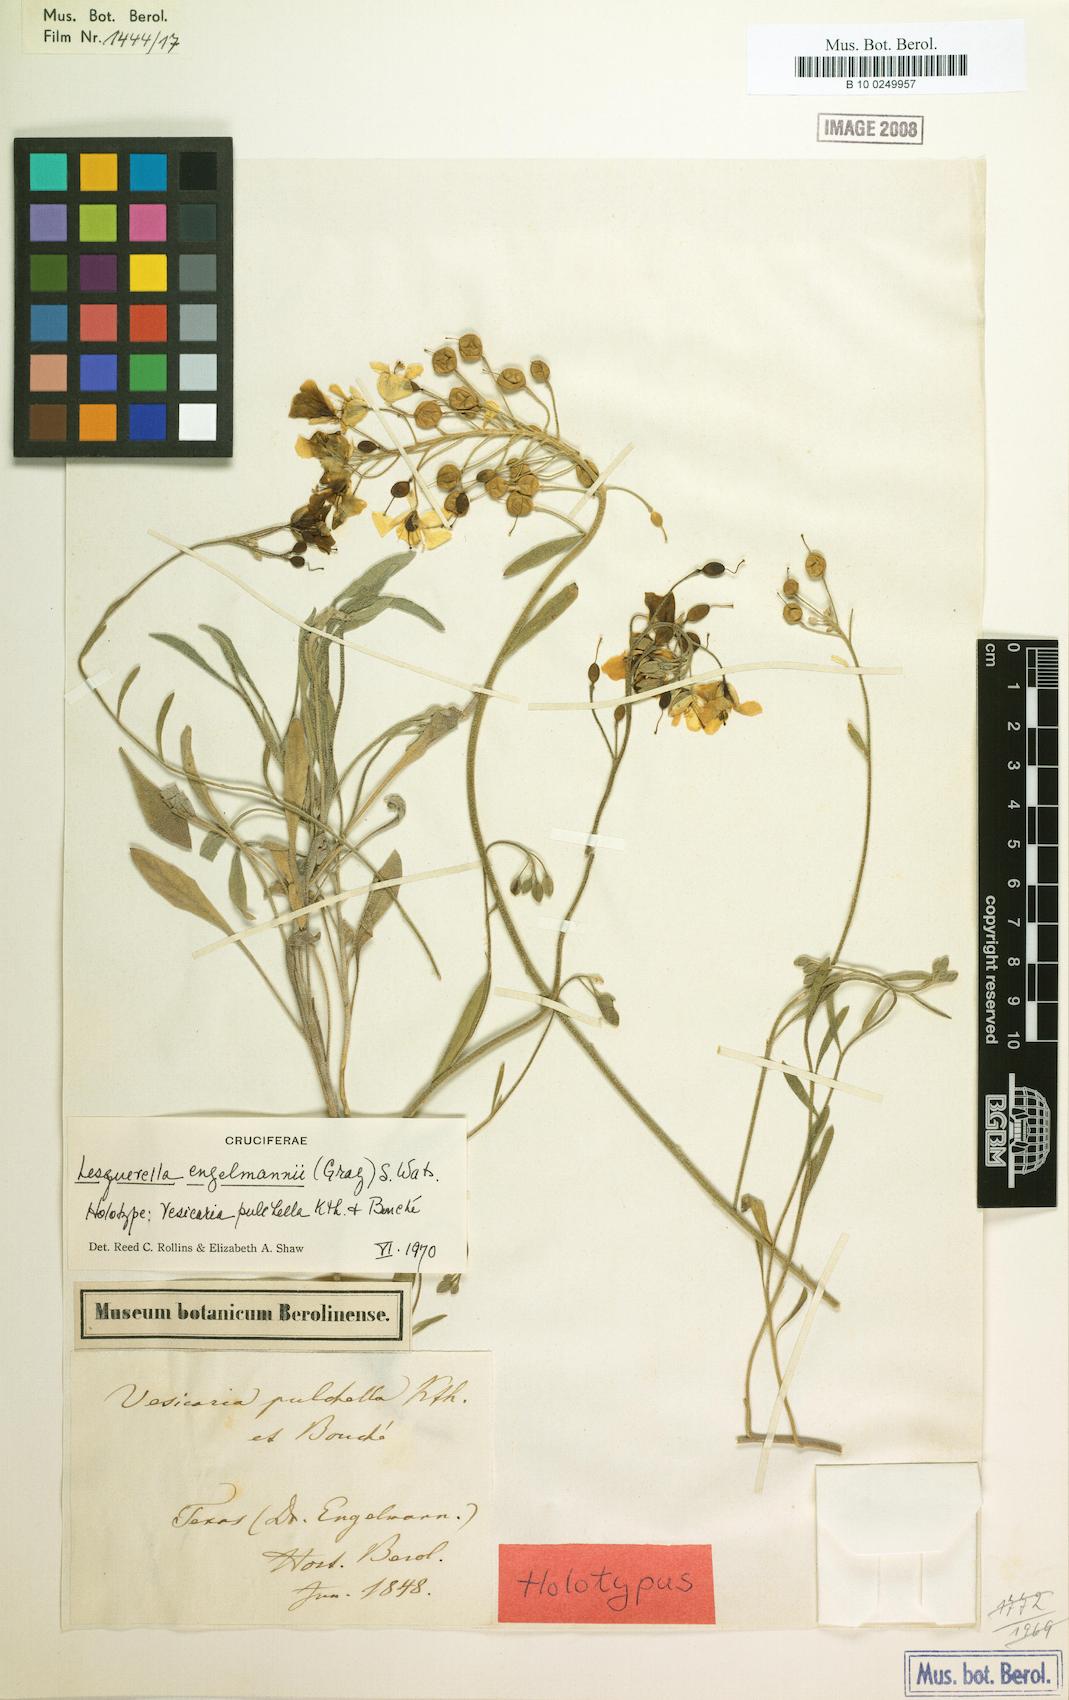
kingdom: Plantae
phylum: Tracheophyta
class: Magnoliopsida
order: Brassicales
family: Brassicaceae
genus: Physaria
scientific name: Physaria engelmannii
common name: Engelmann's bladderpod
